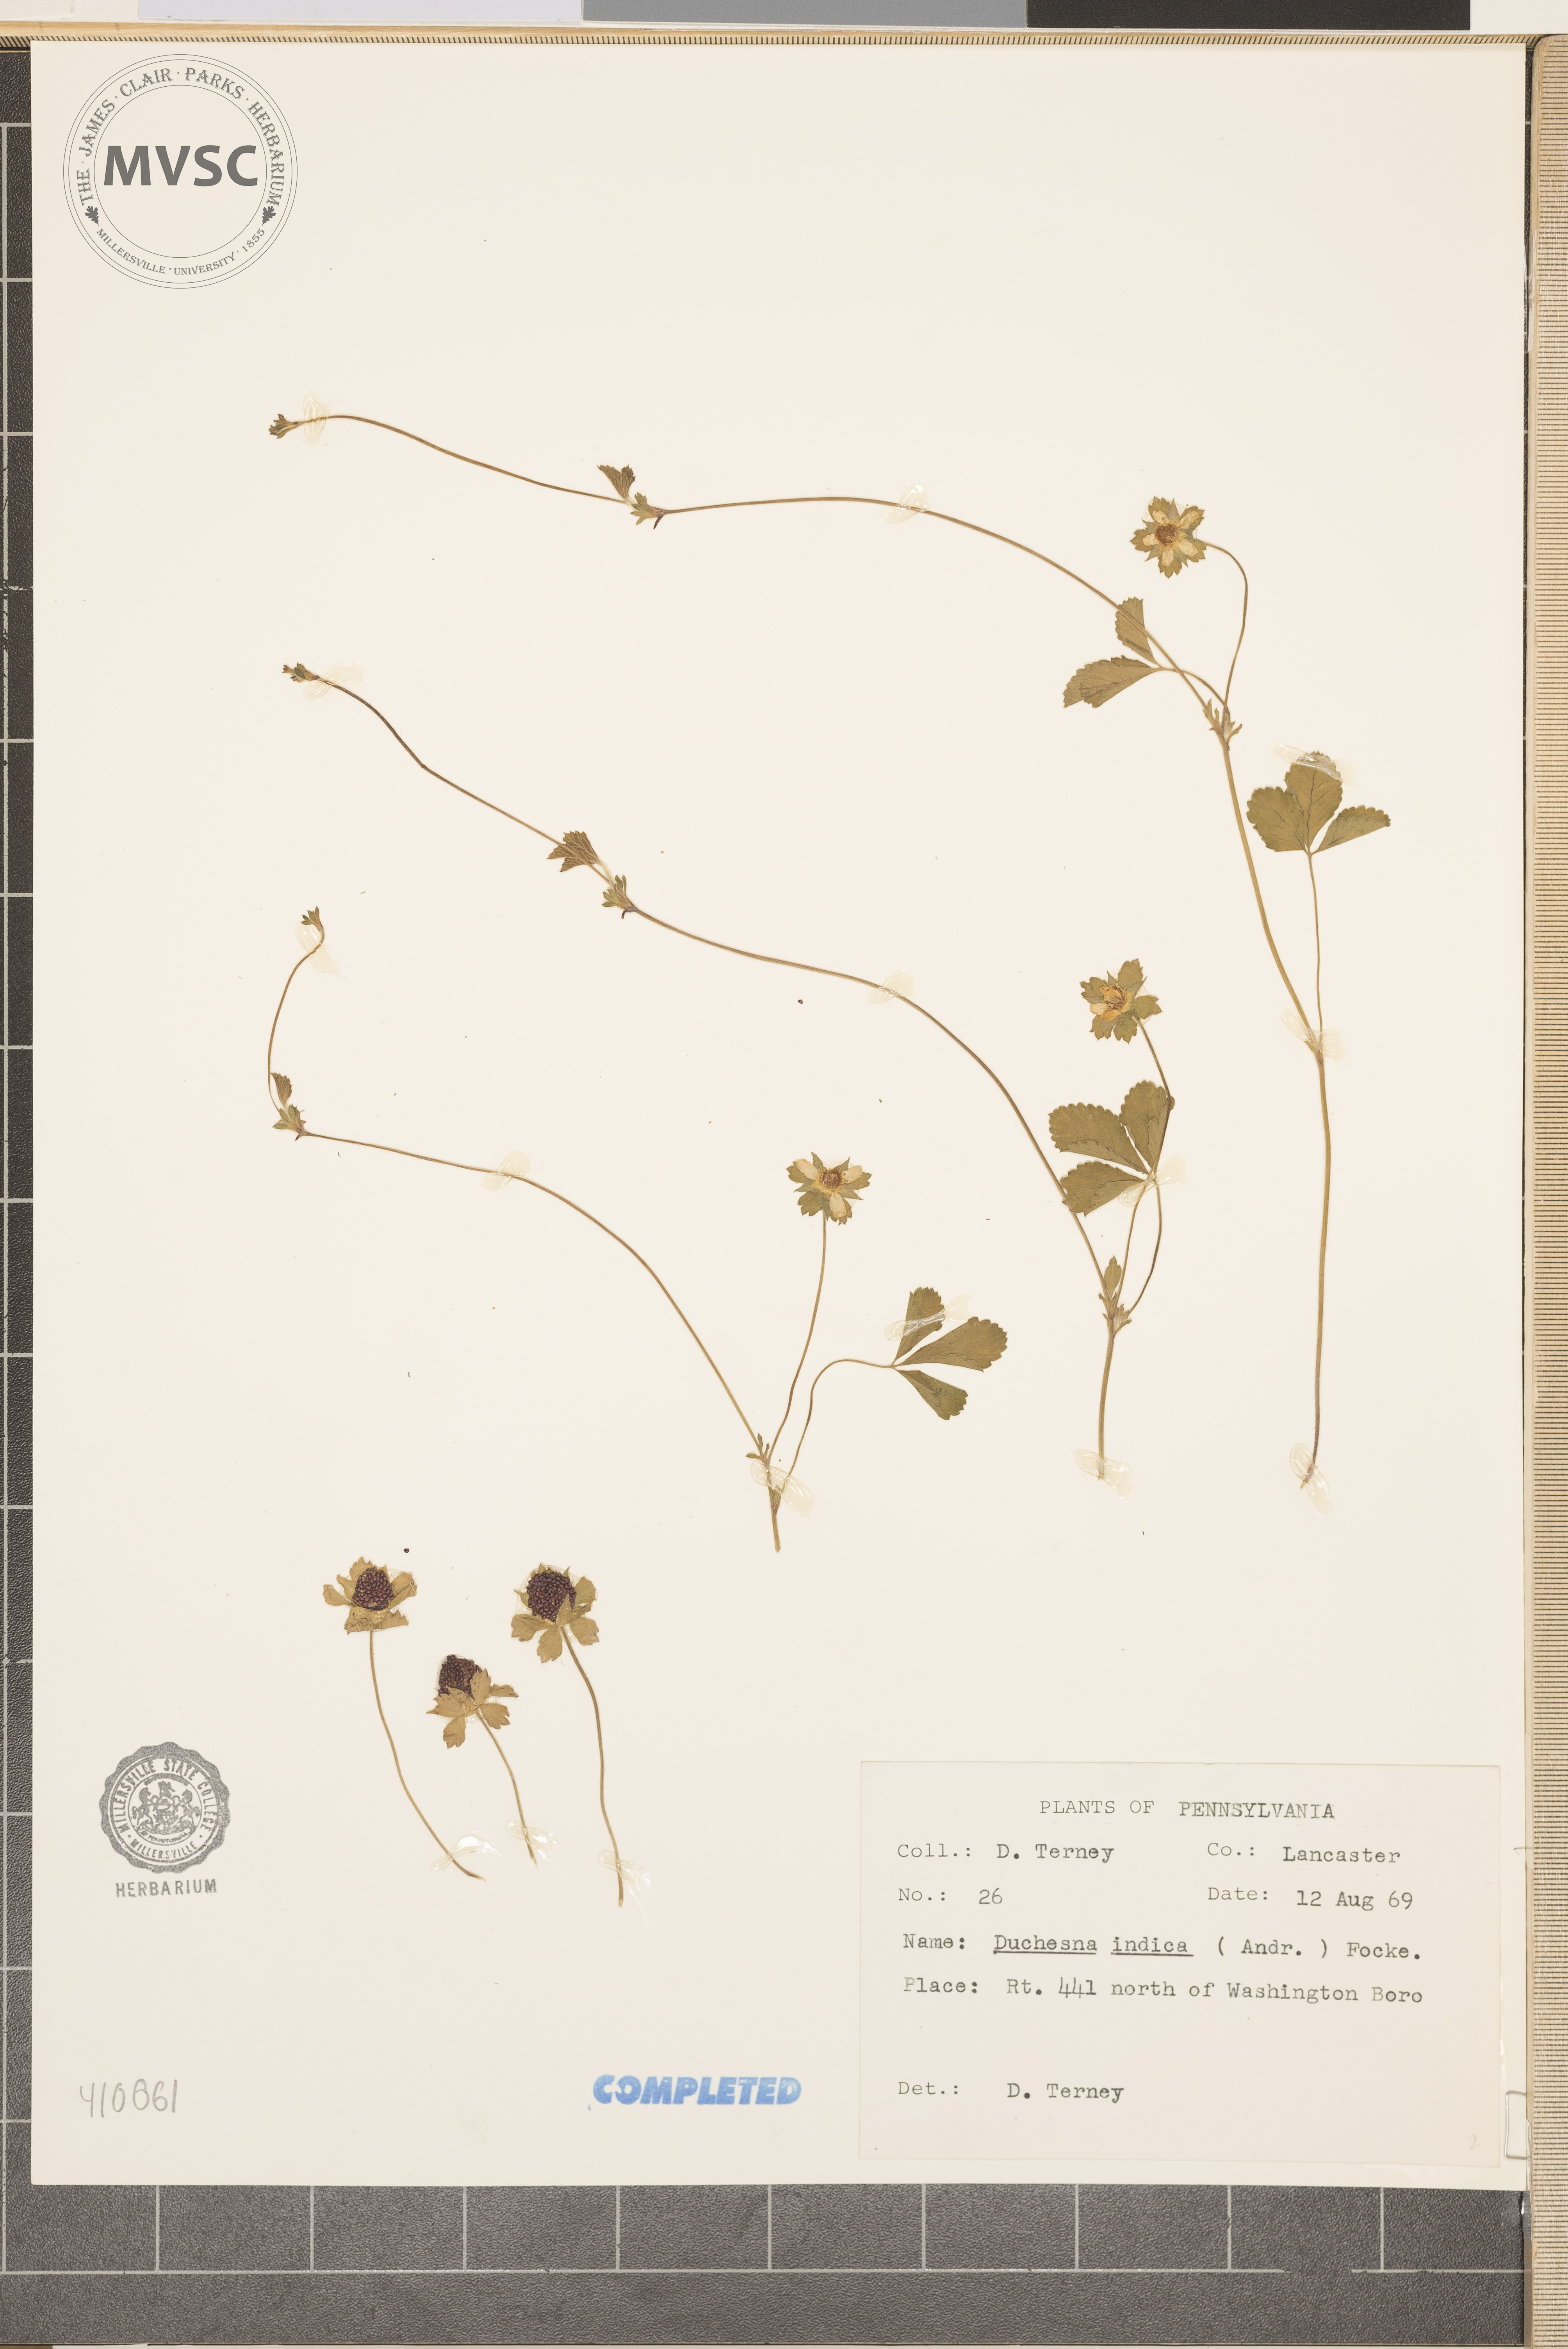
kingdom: Plantae
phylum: Tracheophyta
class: Magnoliopsida
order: Rosales
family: Rosaceae
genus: Potentilla
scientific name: Potentilla indica
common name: Yellow-flowered strawberry
